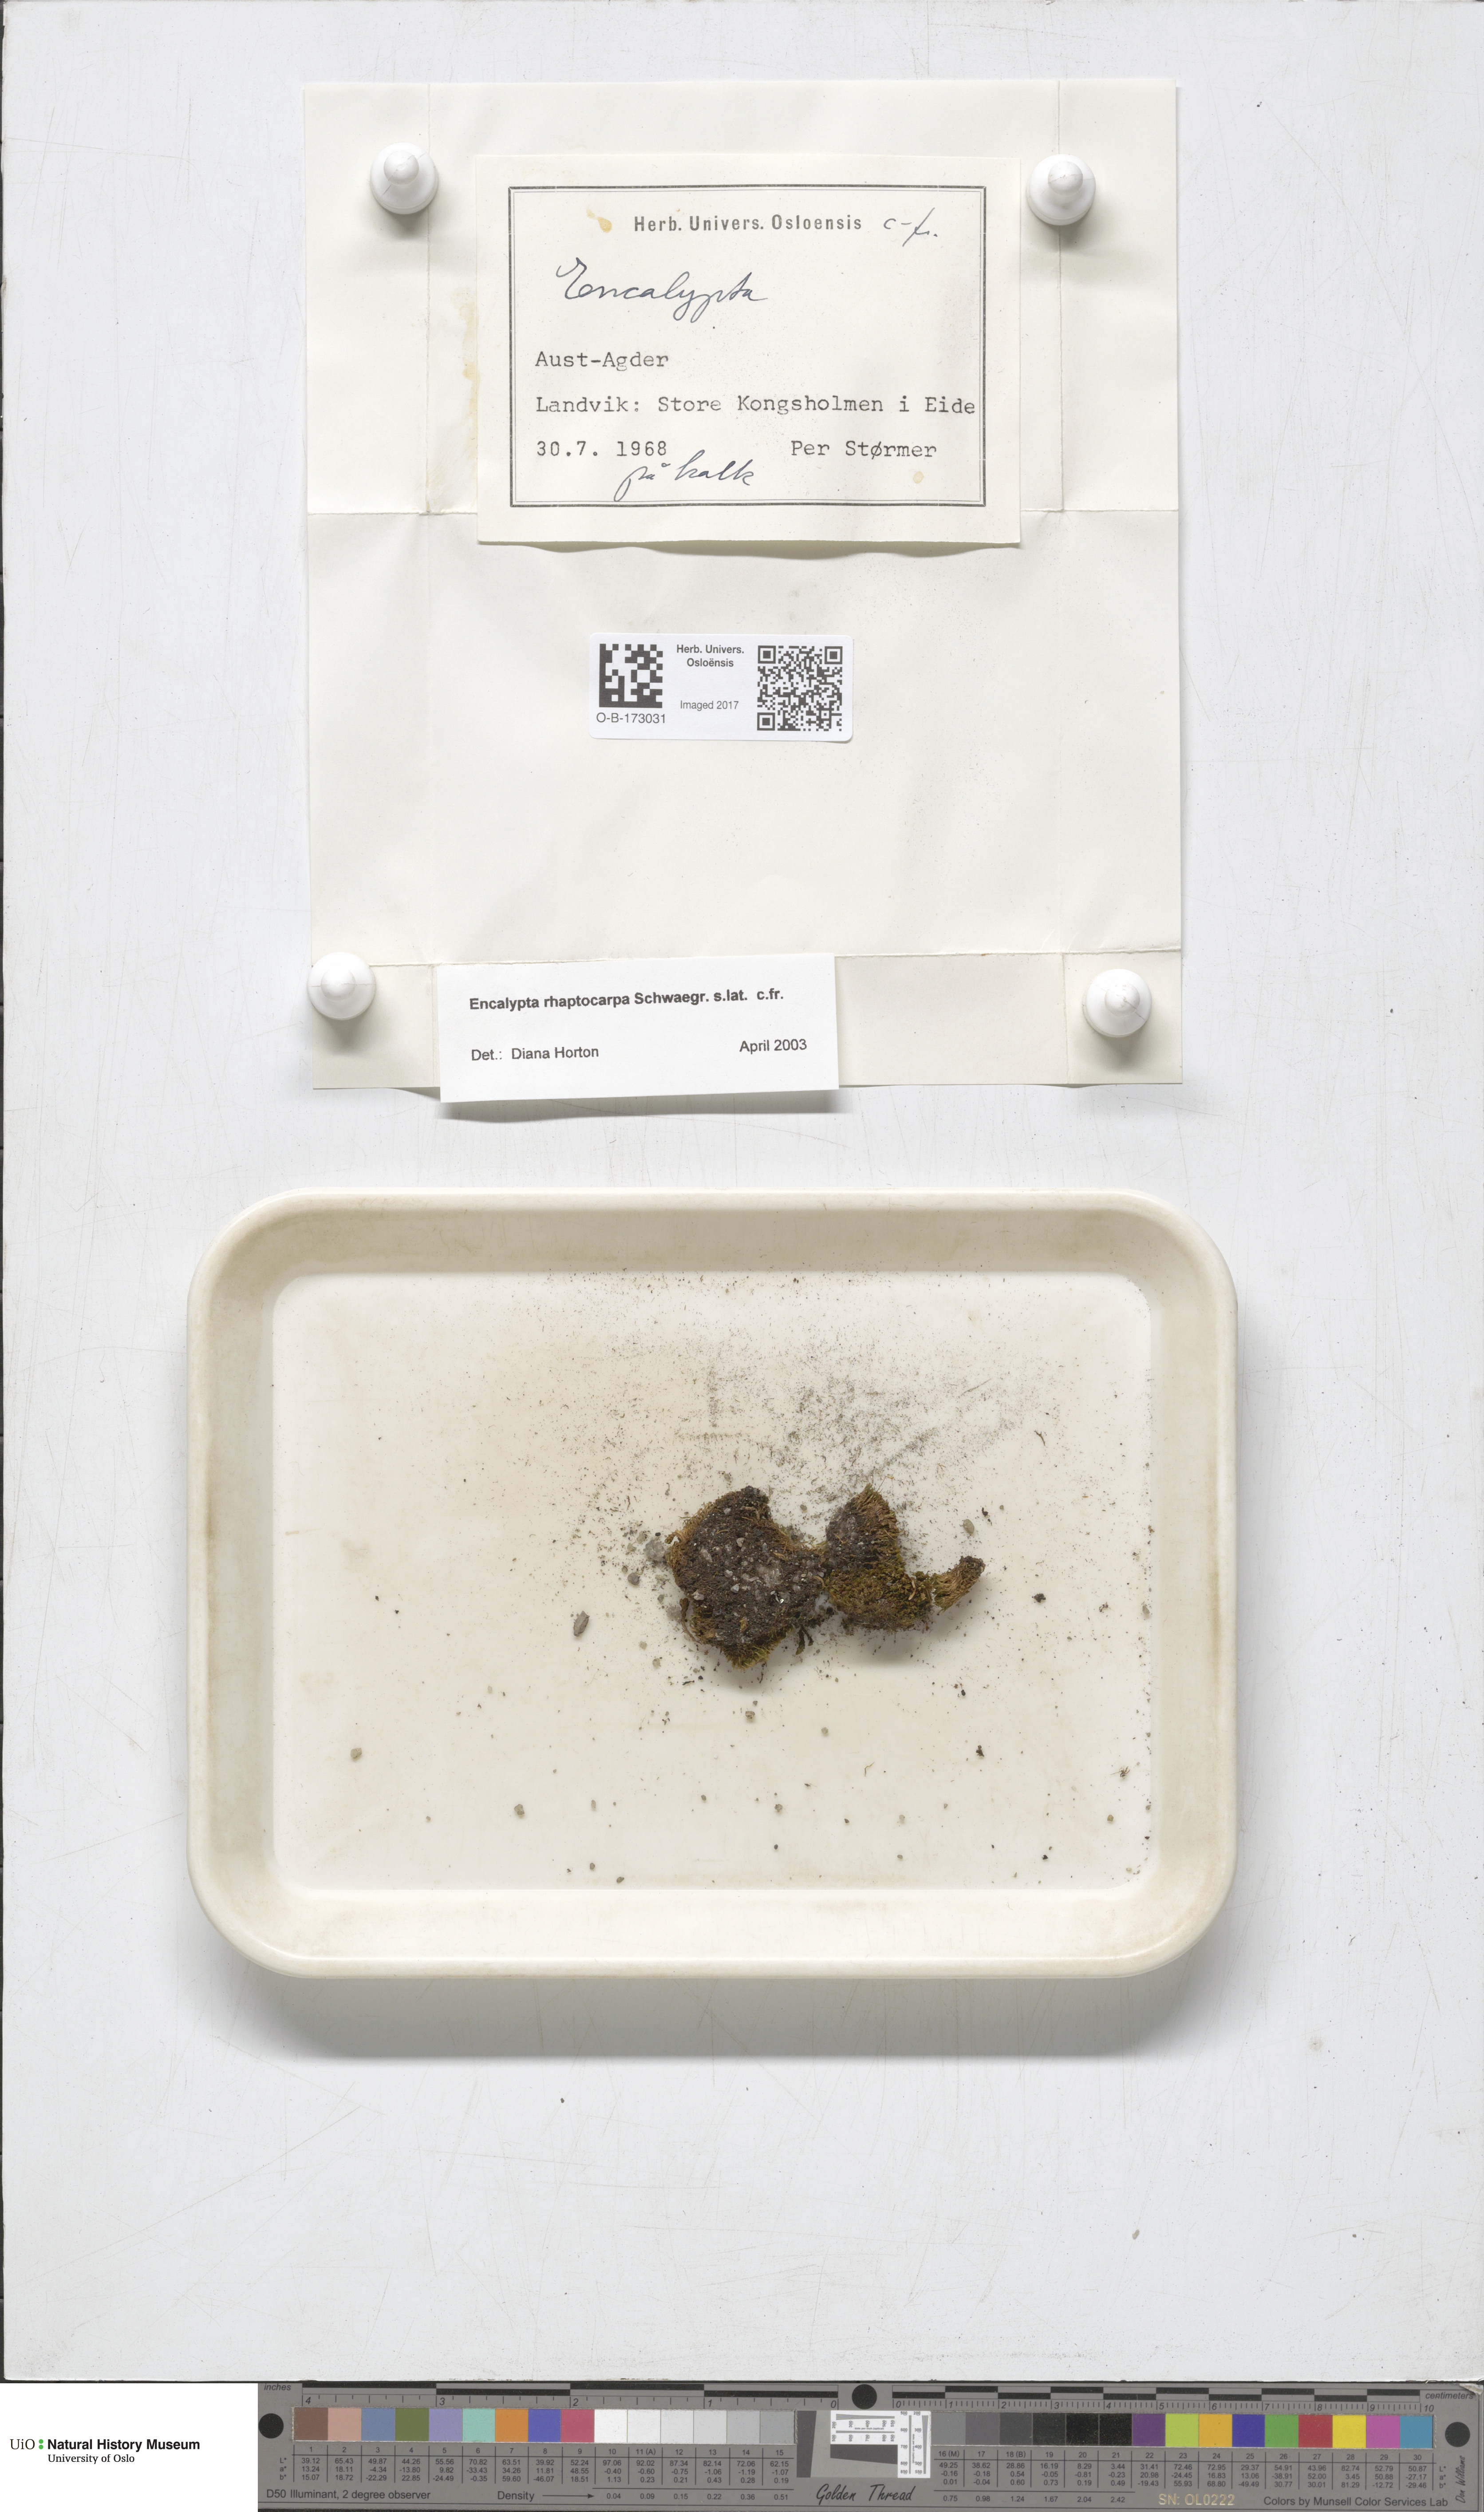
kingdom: Plantae
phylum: Bryophyta
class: Bryopsida
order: Encalyptales
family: Encalyptaceae
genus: Encalypta
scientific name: Encalypta rhaptocarpa
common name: Ribbed extinguisher moss
